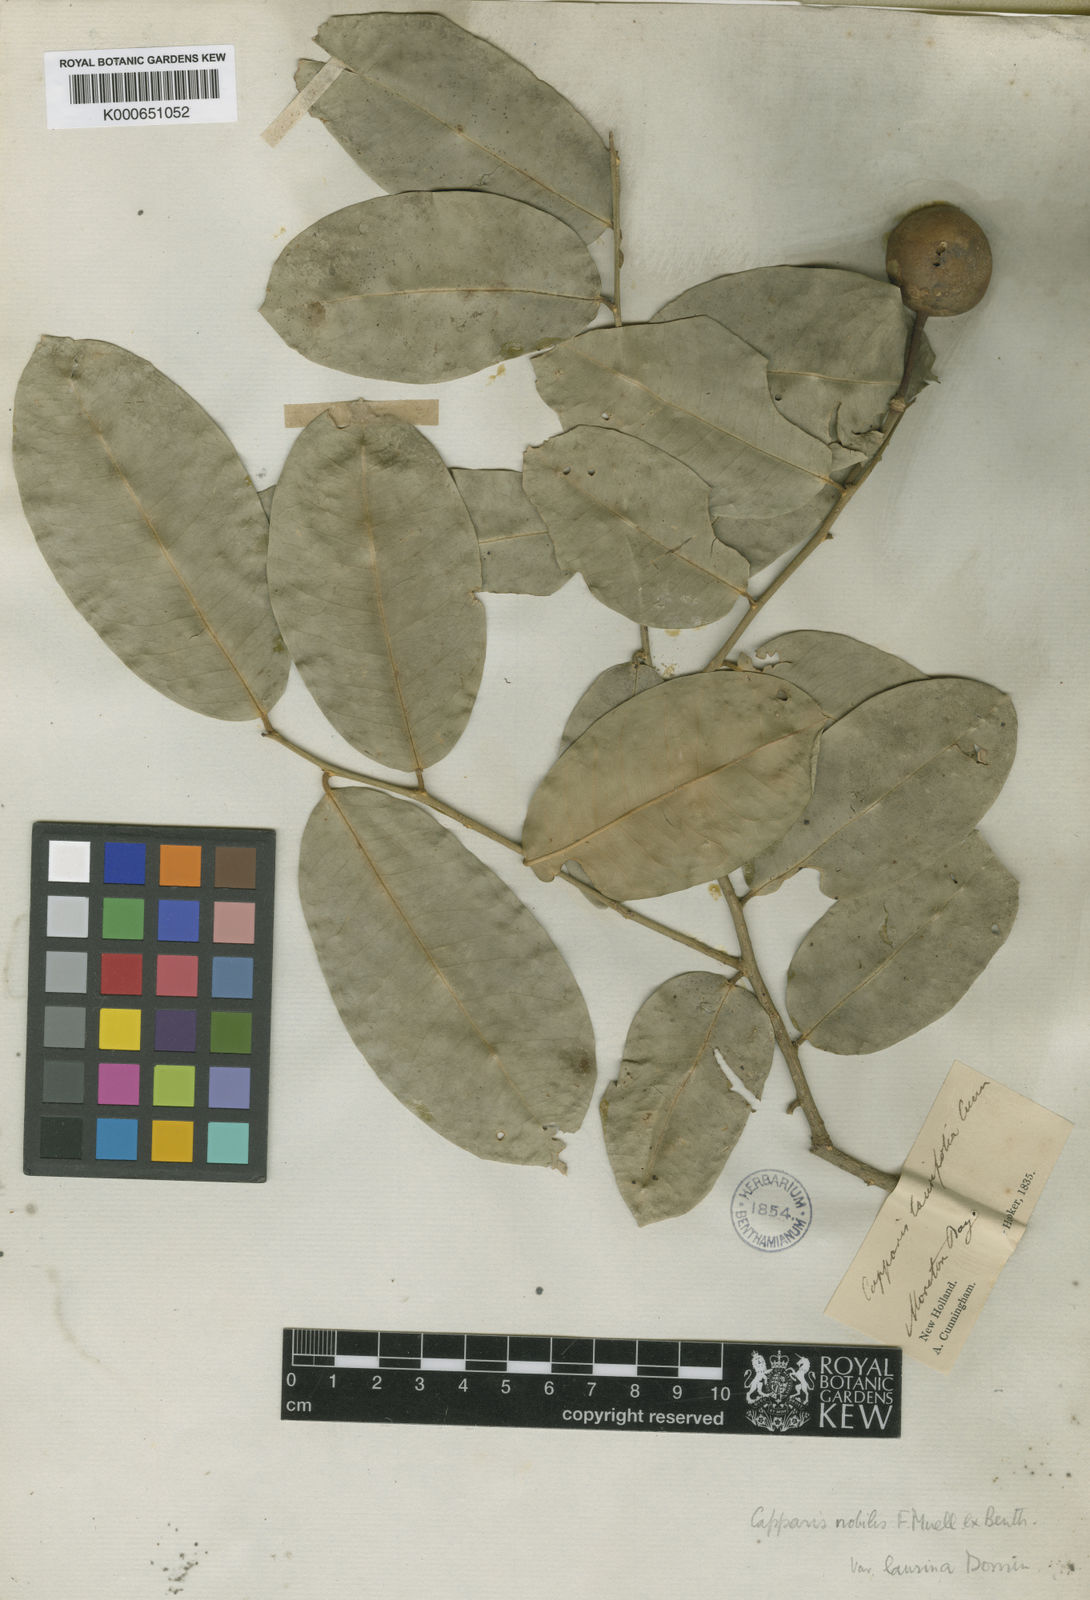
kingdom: Plantae
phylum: Tracheophyta
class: Magnoliopsida
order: Brassicales
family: Capparaceae
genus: Capparis
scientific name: Capparis arborea
